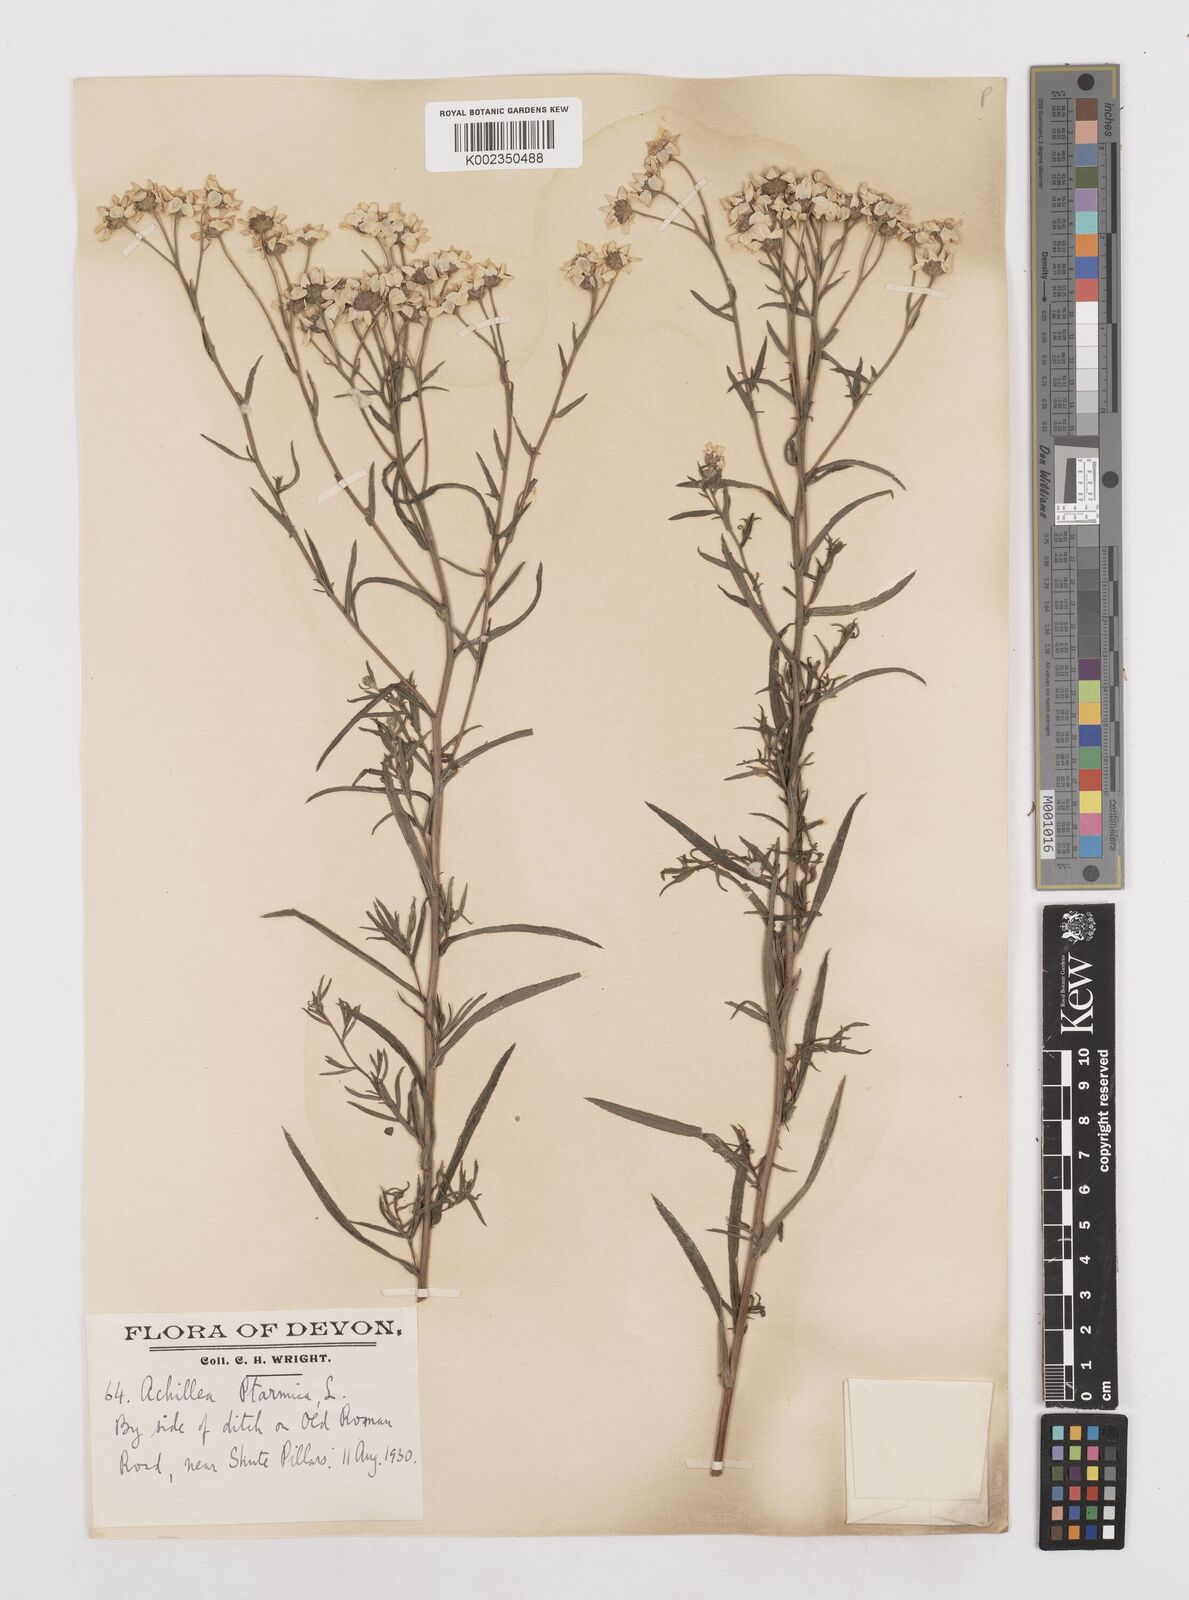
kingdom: Plantae
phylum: Tracheophyta
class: Magnoliopsida
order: Asterales
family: Asteraceae
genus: Achillea
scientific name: Achillea ptarmica
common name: Sneezeweed
